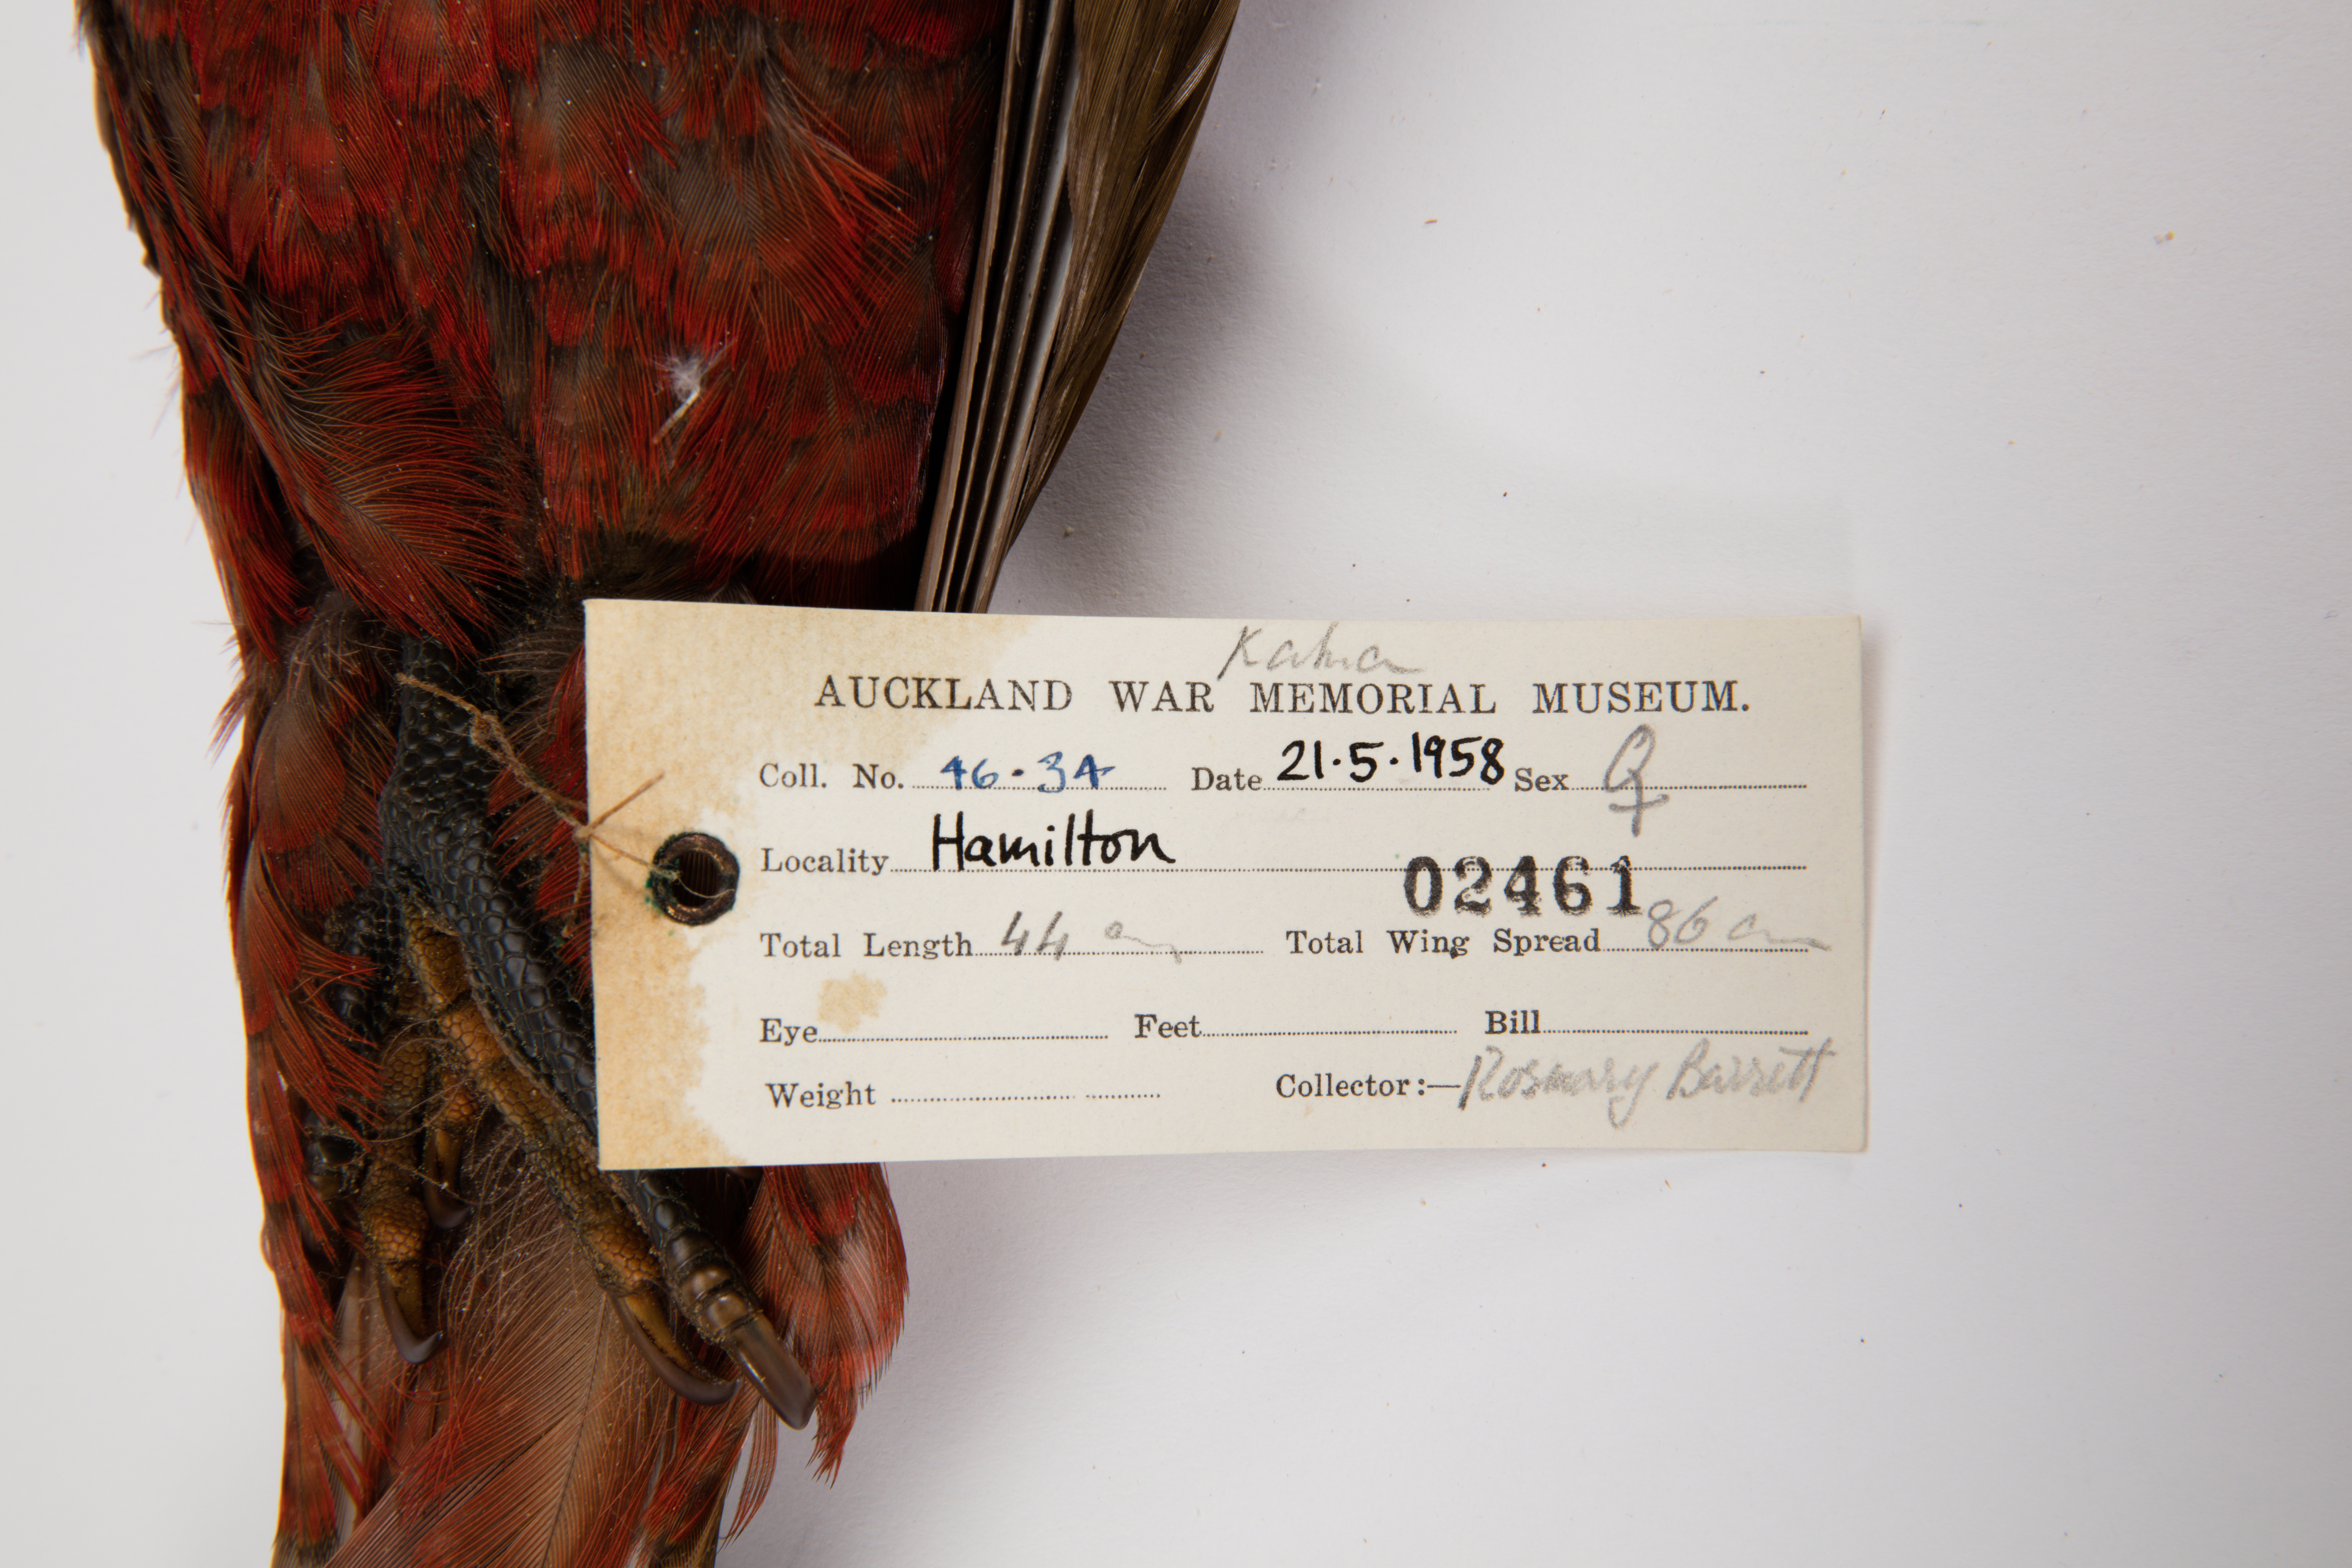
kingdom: Animalia
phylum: Chordata
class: Aves
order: Psittaciformes
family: Psittacidae
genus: Nestor
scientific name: Nestor meridionalis
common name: New zealand kaka
